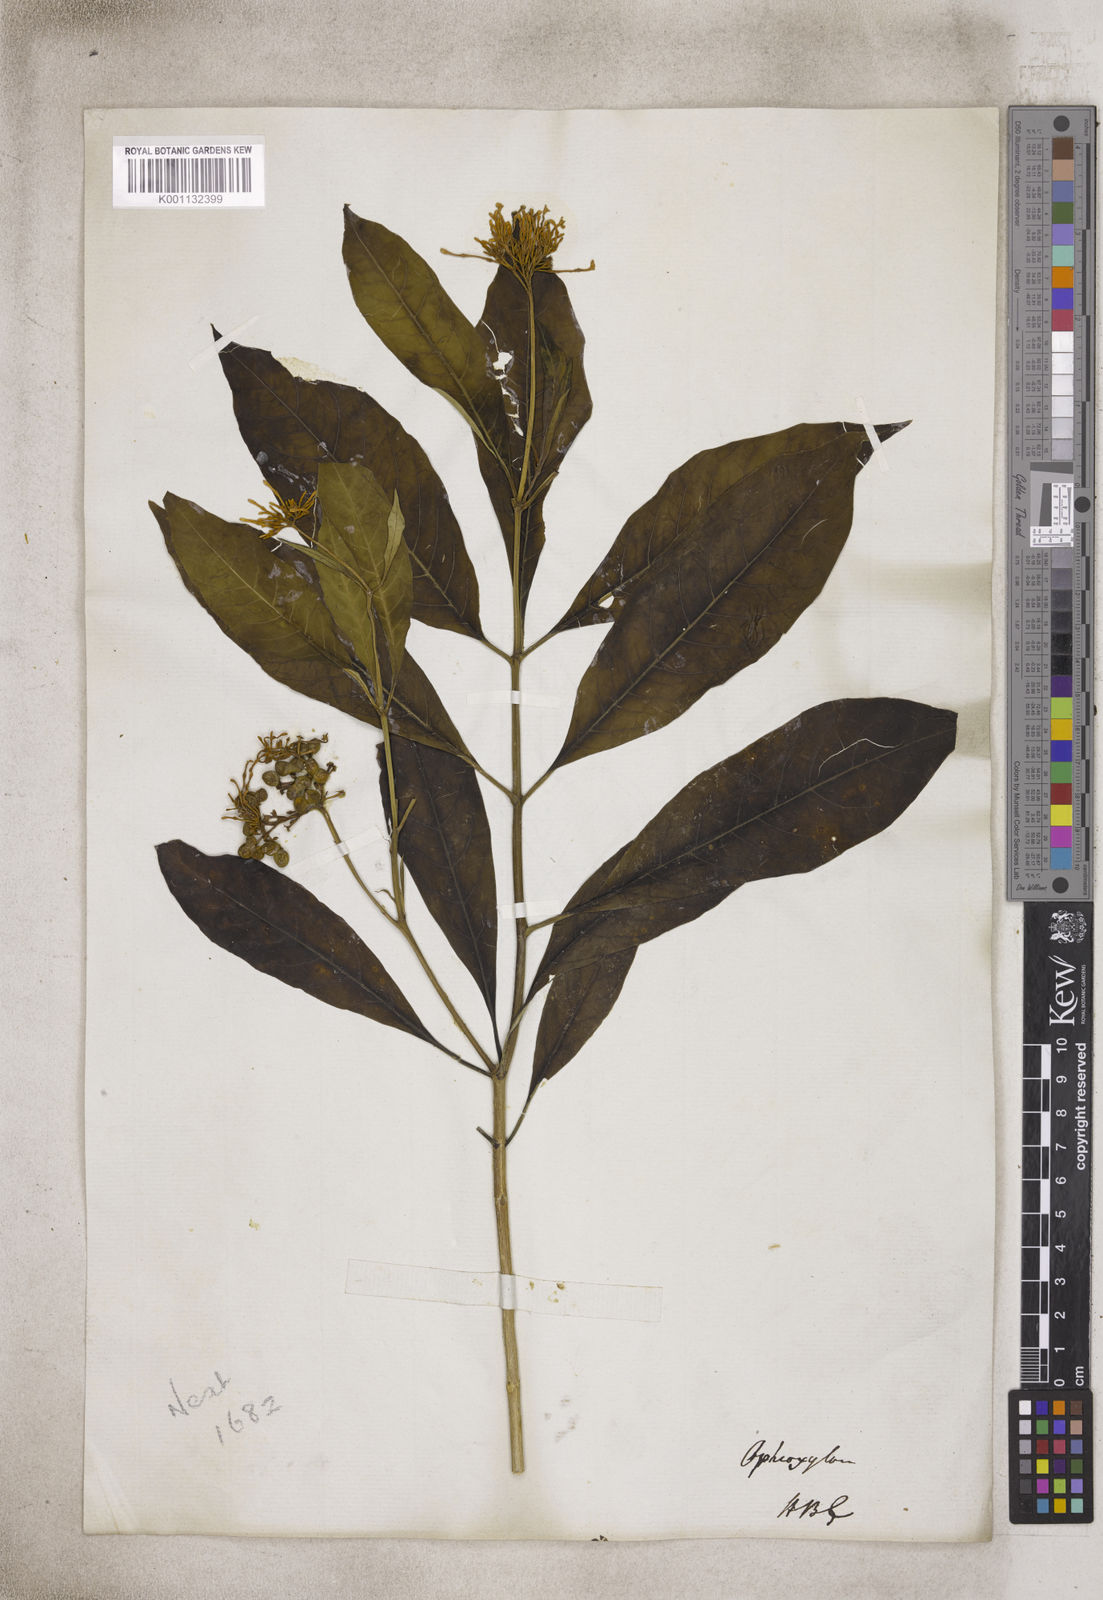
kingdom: Plantae
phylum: Tracheophyta
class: Magnoliopsida
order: Gentianales
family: Apocynaceae
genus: Rauvolfia
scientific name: Rauvolfia
